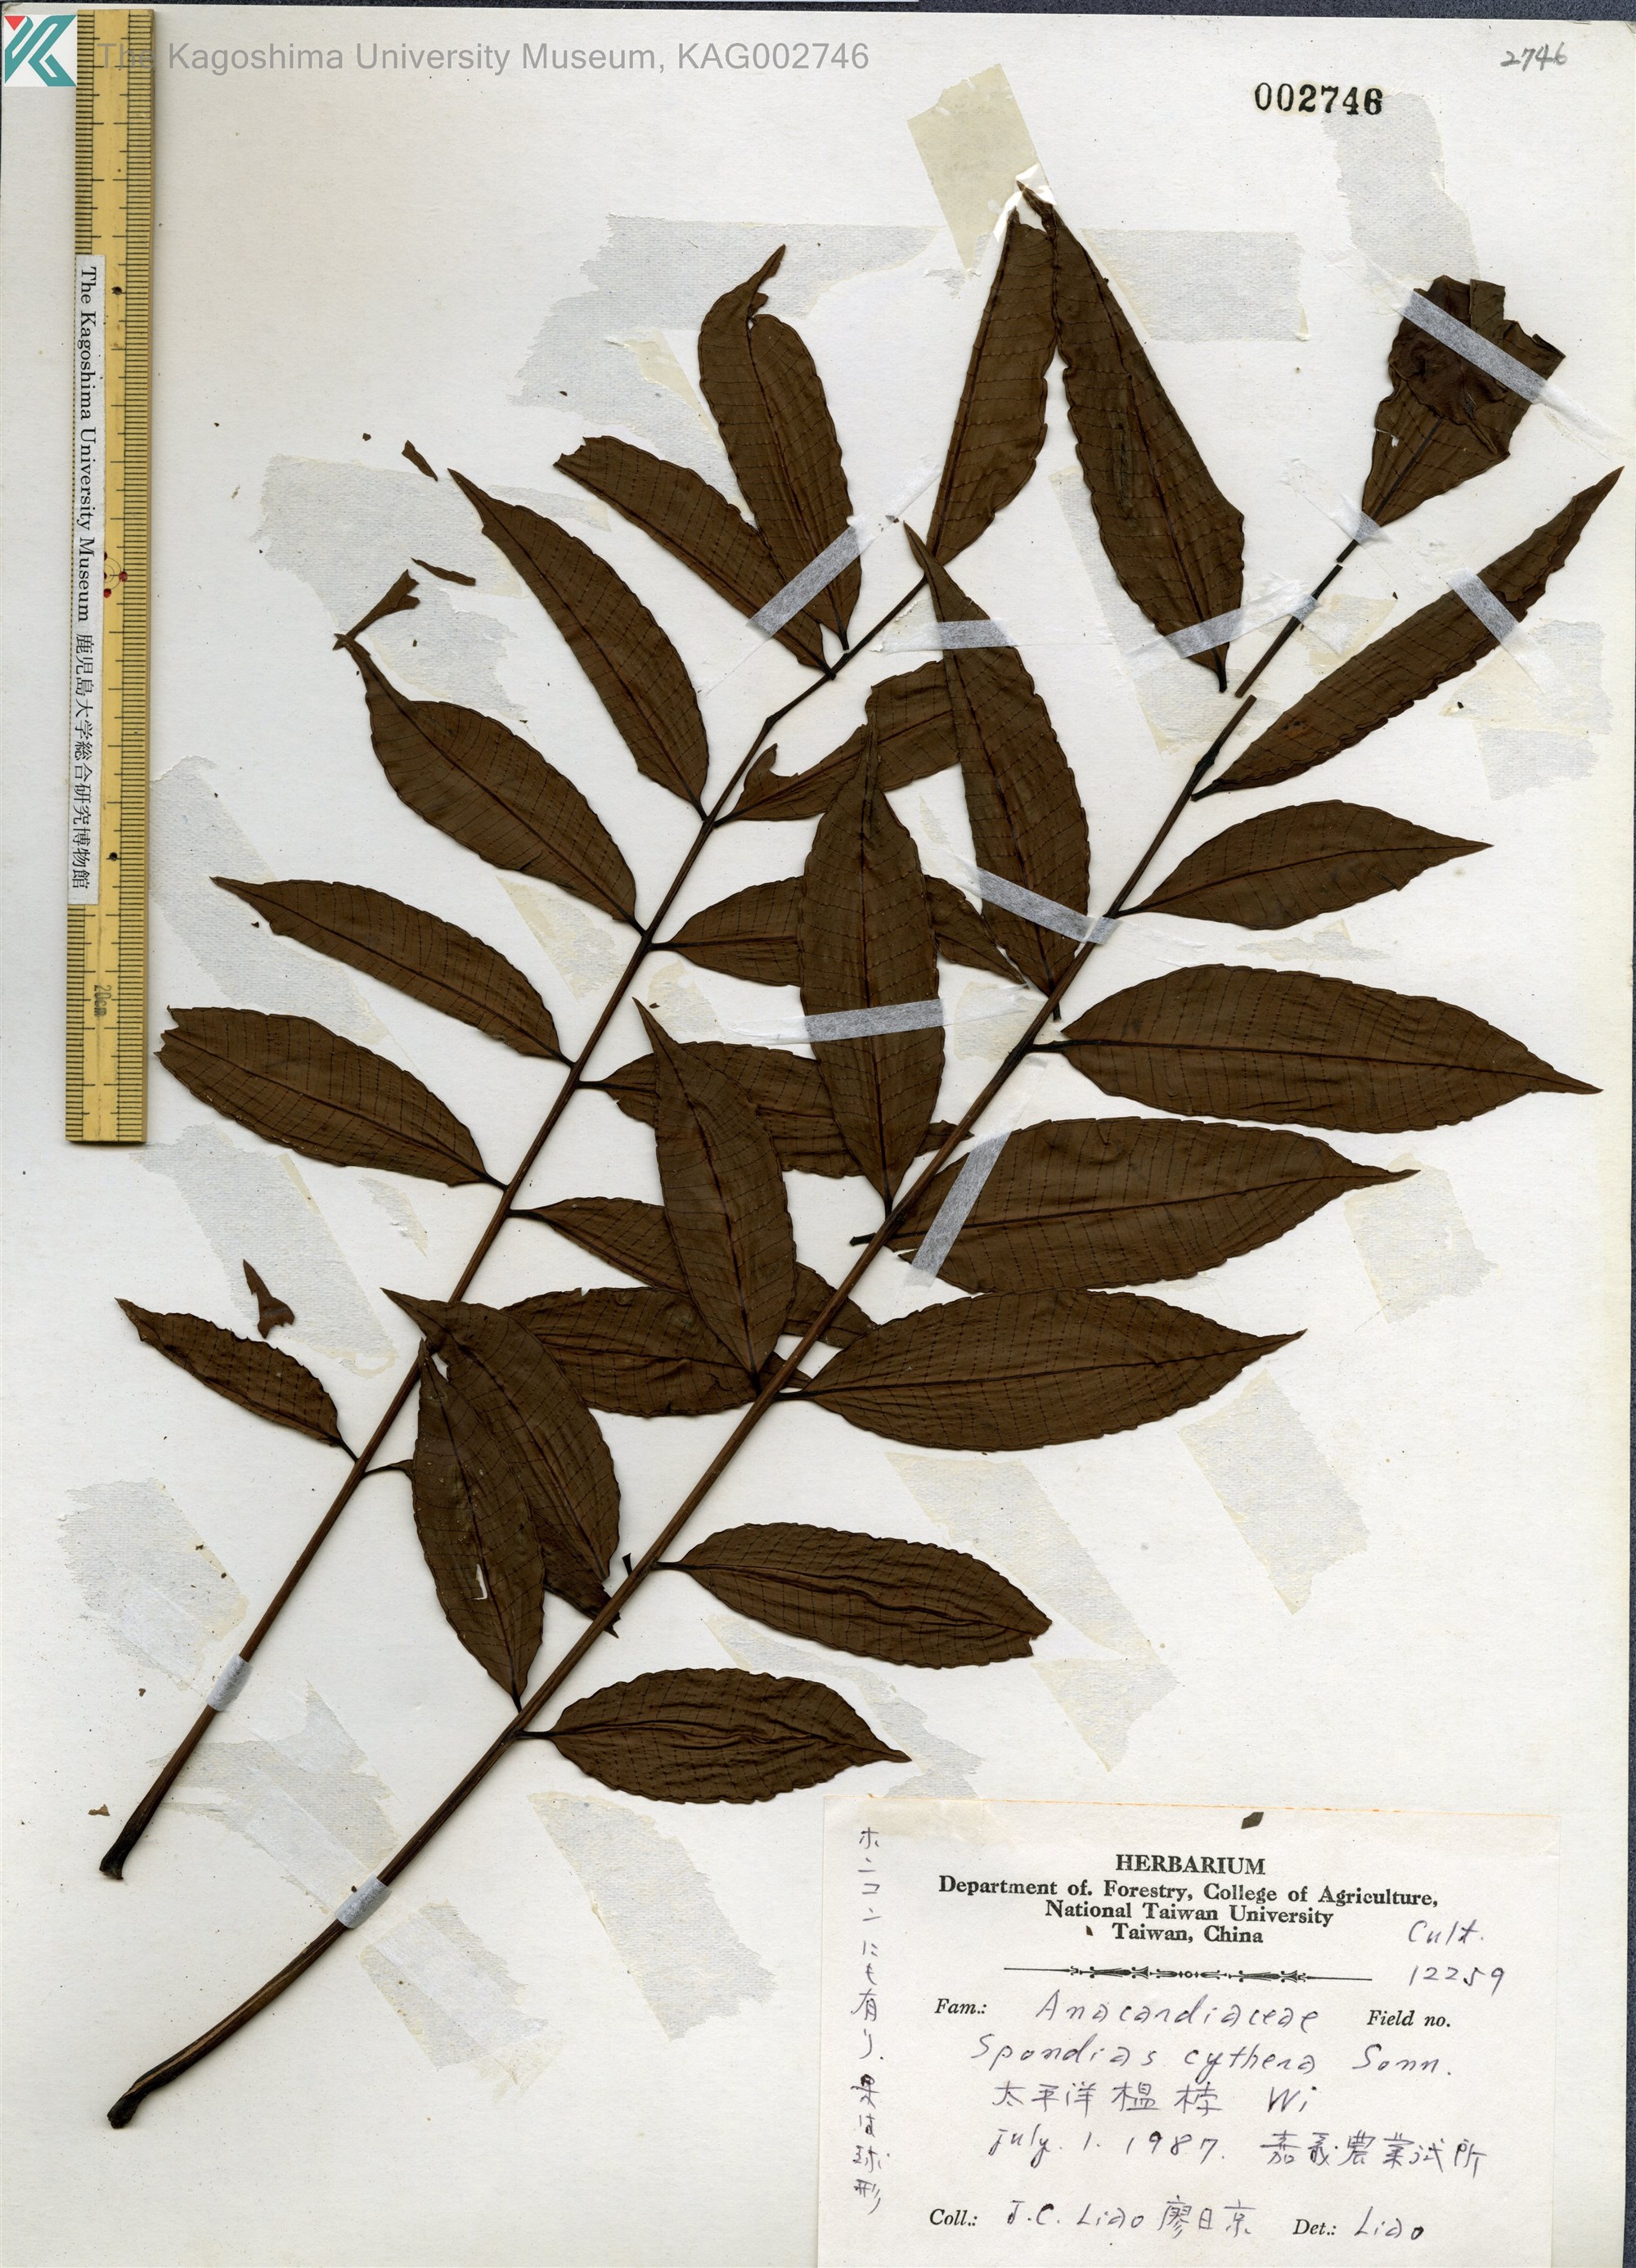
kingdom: Plantae
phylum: Tracheophyta
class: Magnoliopsida
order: Sapindales
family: Anacardiaceae
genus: Spondias
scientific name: Spondias dulcis
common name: Ambarella
